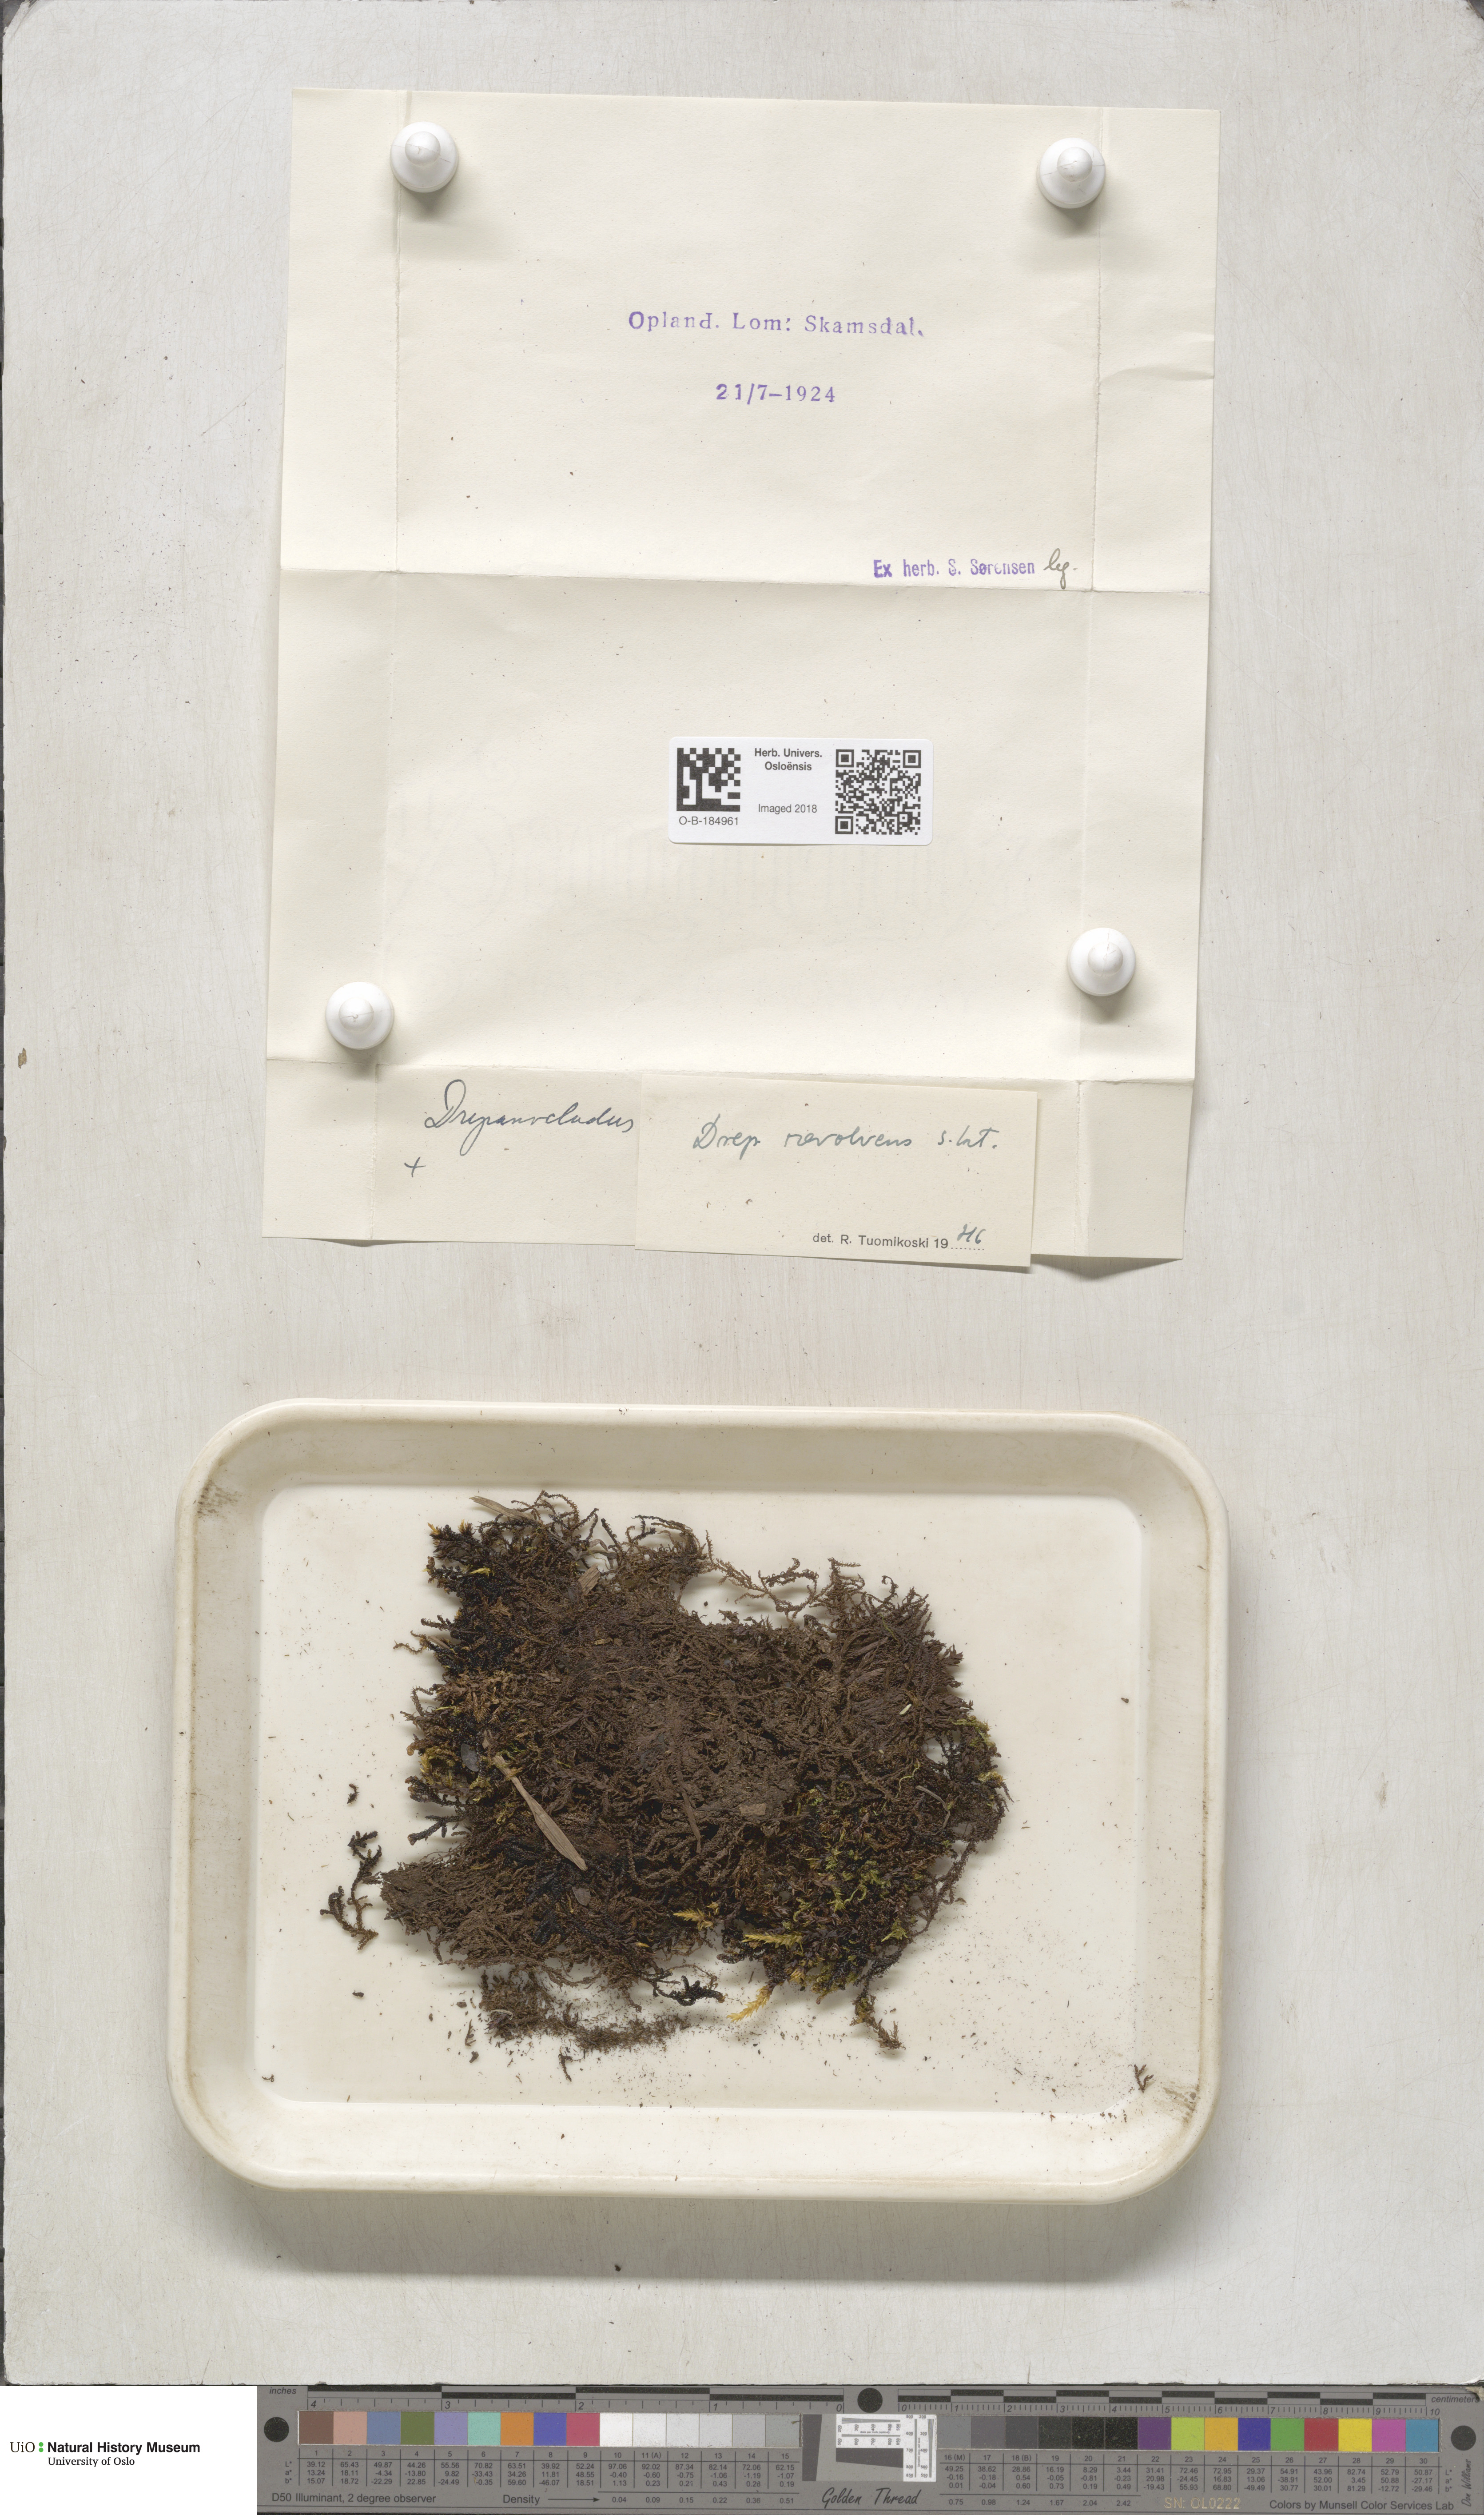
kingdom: Plantae
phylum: Bryophyta
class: Bryopsida
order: Hypnales
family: Scorpidiaceae
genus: Scorpidium
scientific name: Scorpidium revolvens
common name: Rusty hook moss
